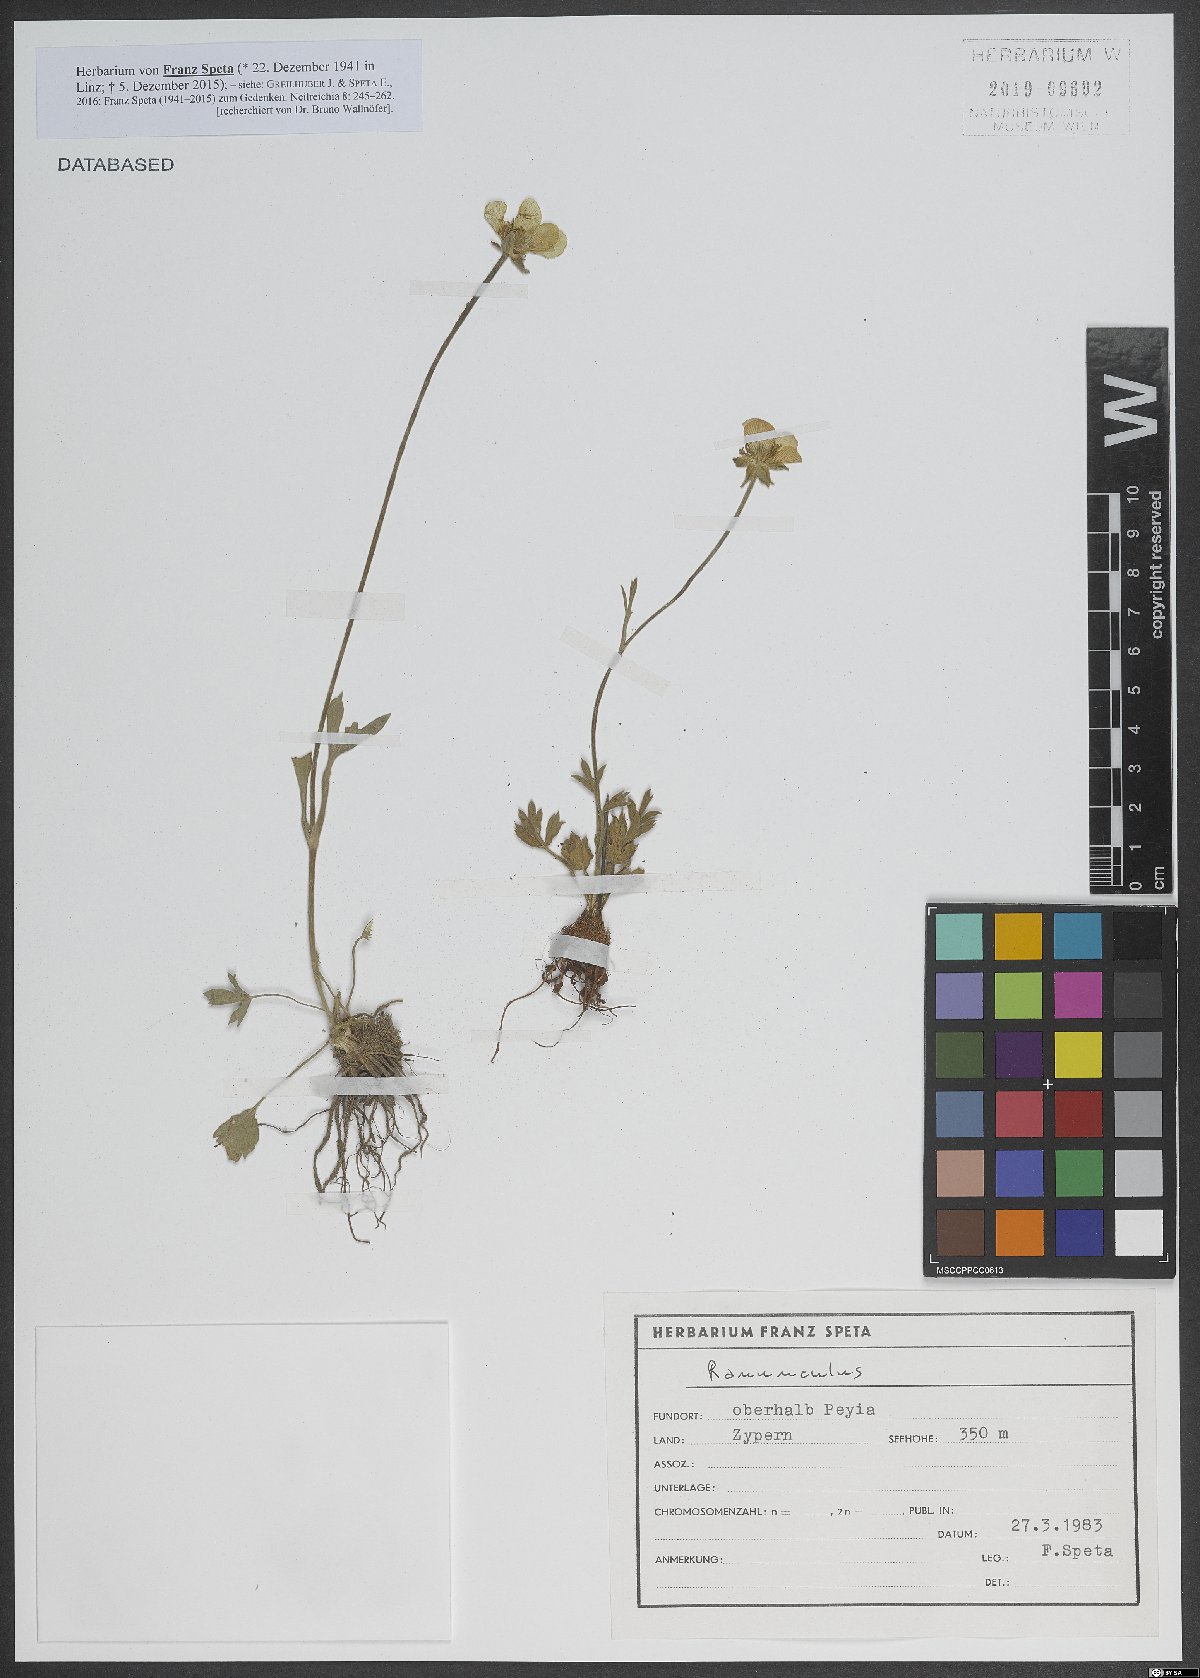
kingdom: Plantae
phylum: Tracheophyta
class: Magnoliopsida
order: Ranunculales
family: Ranunculaceae
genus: Ranunculus
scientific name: Ranunculus
